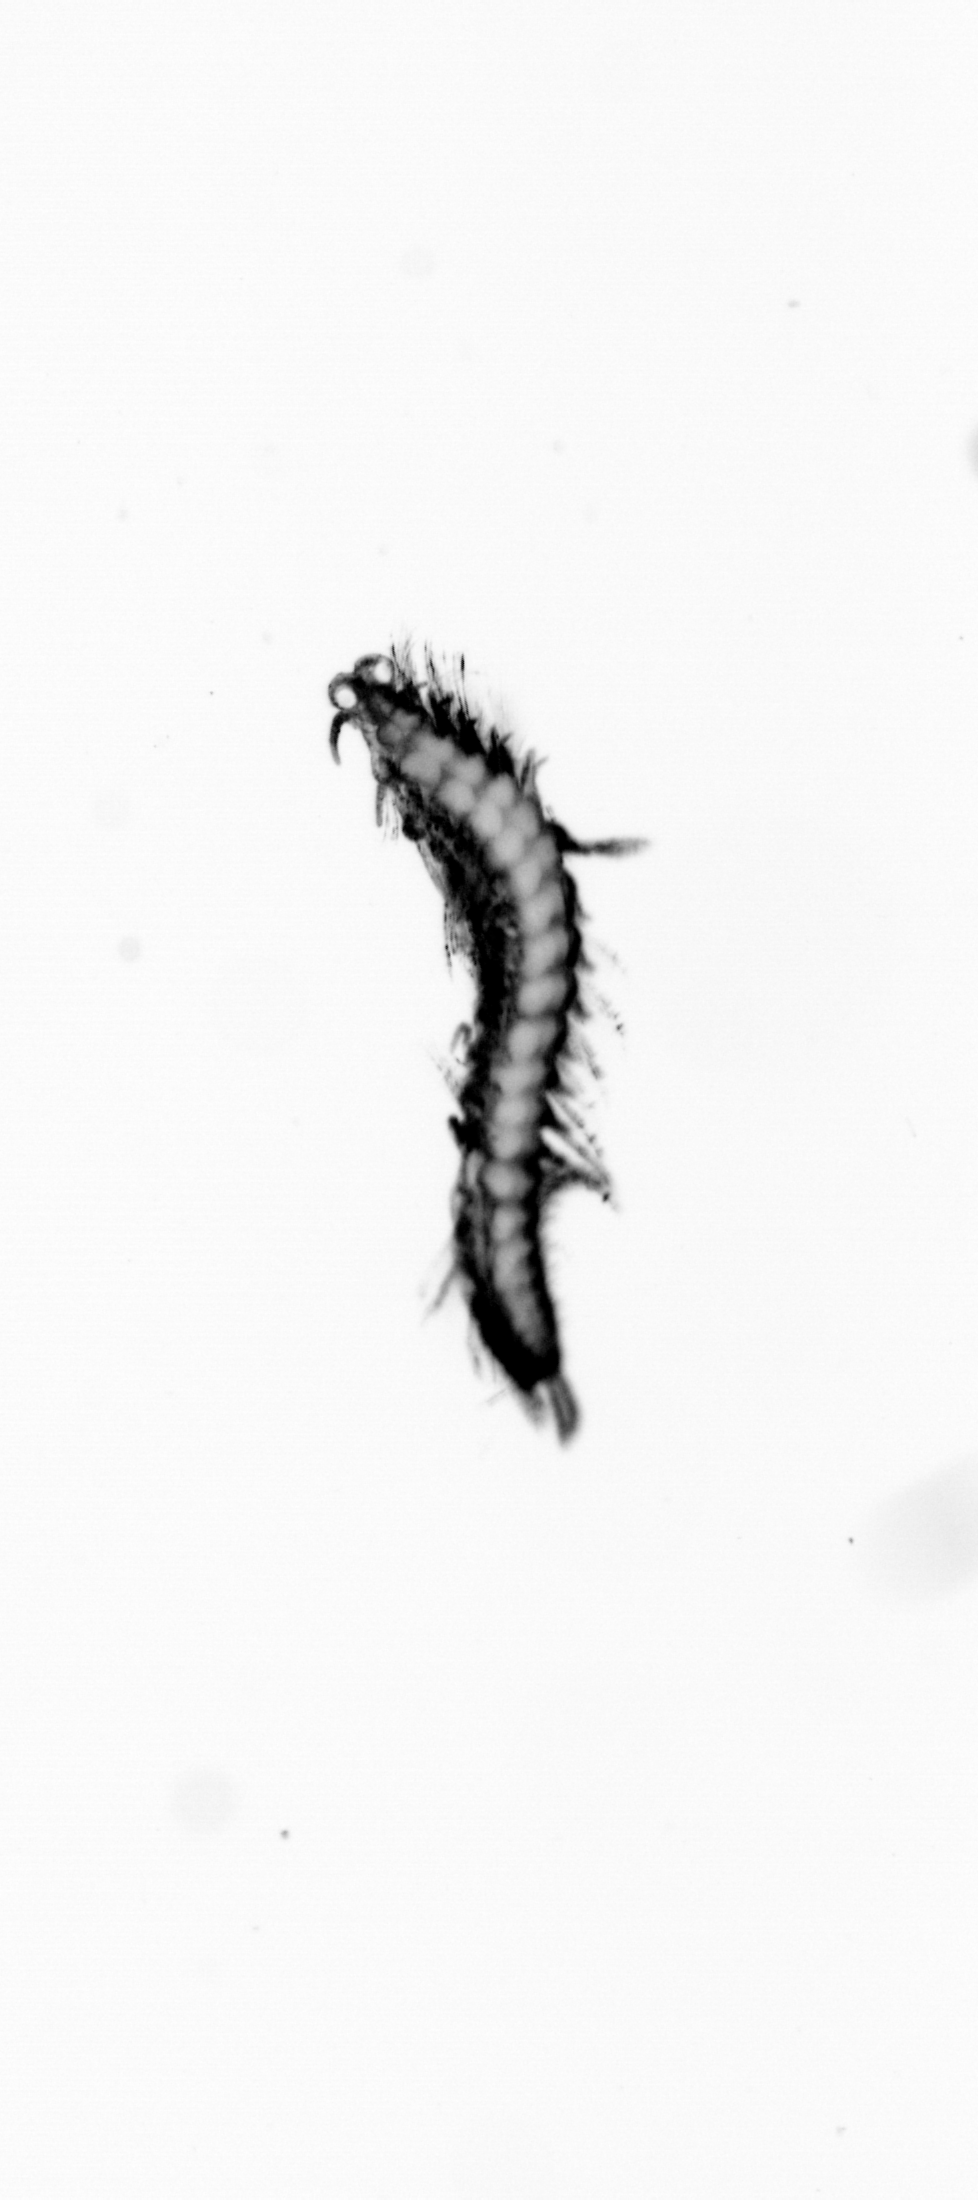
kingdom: Animalia
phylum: Annelida
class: Polychaeta
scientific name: Polychaeta
